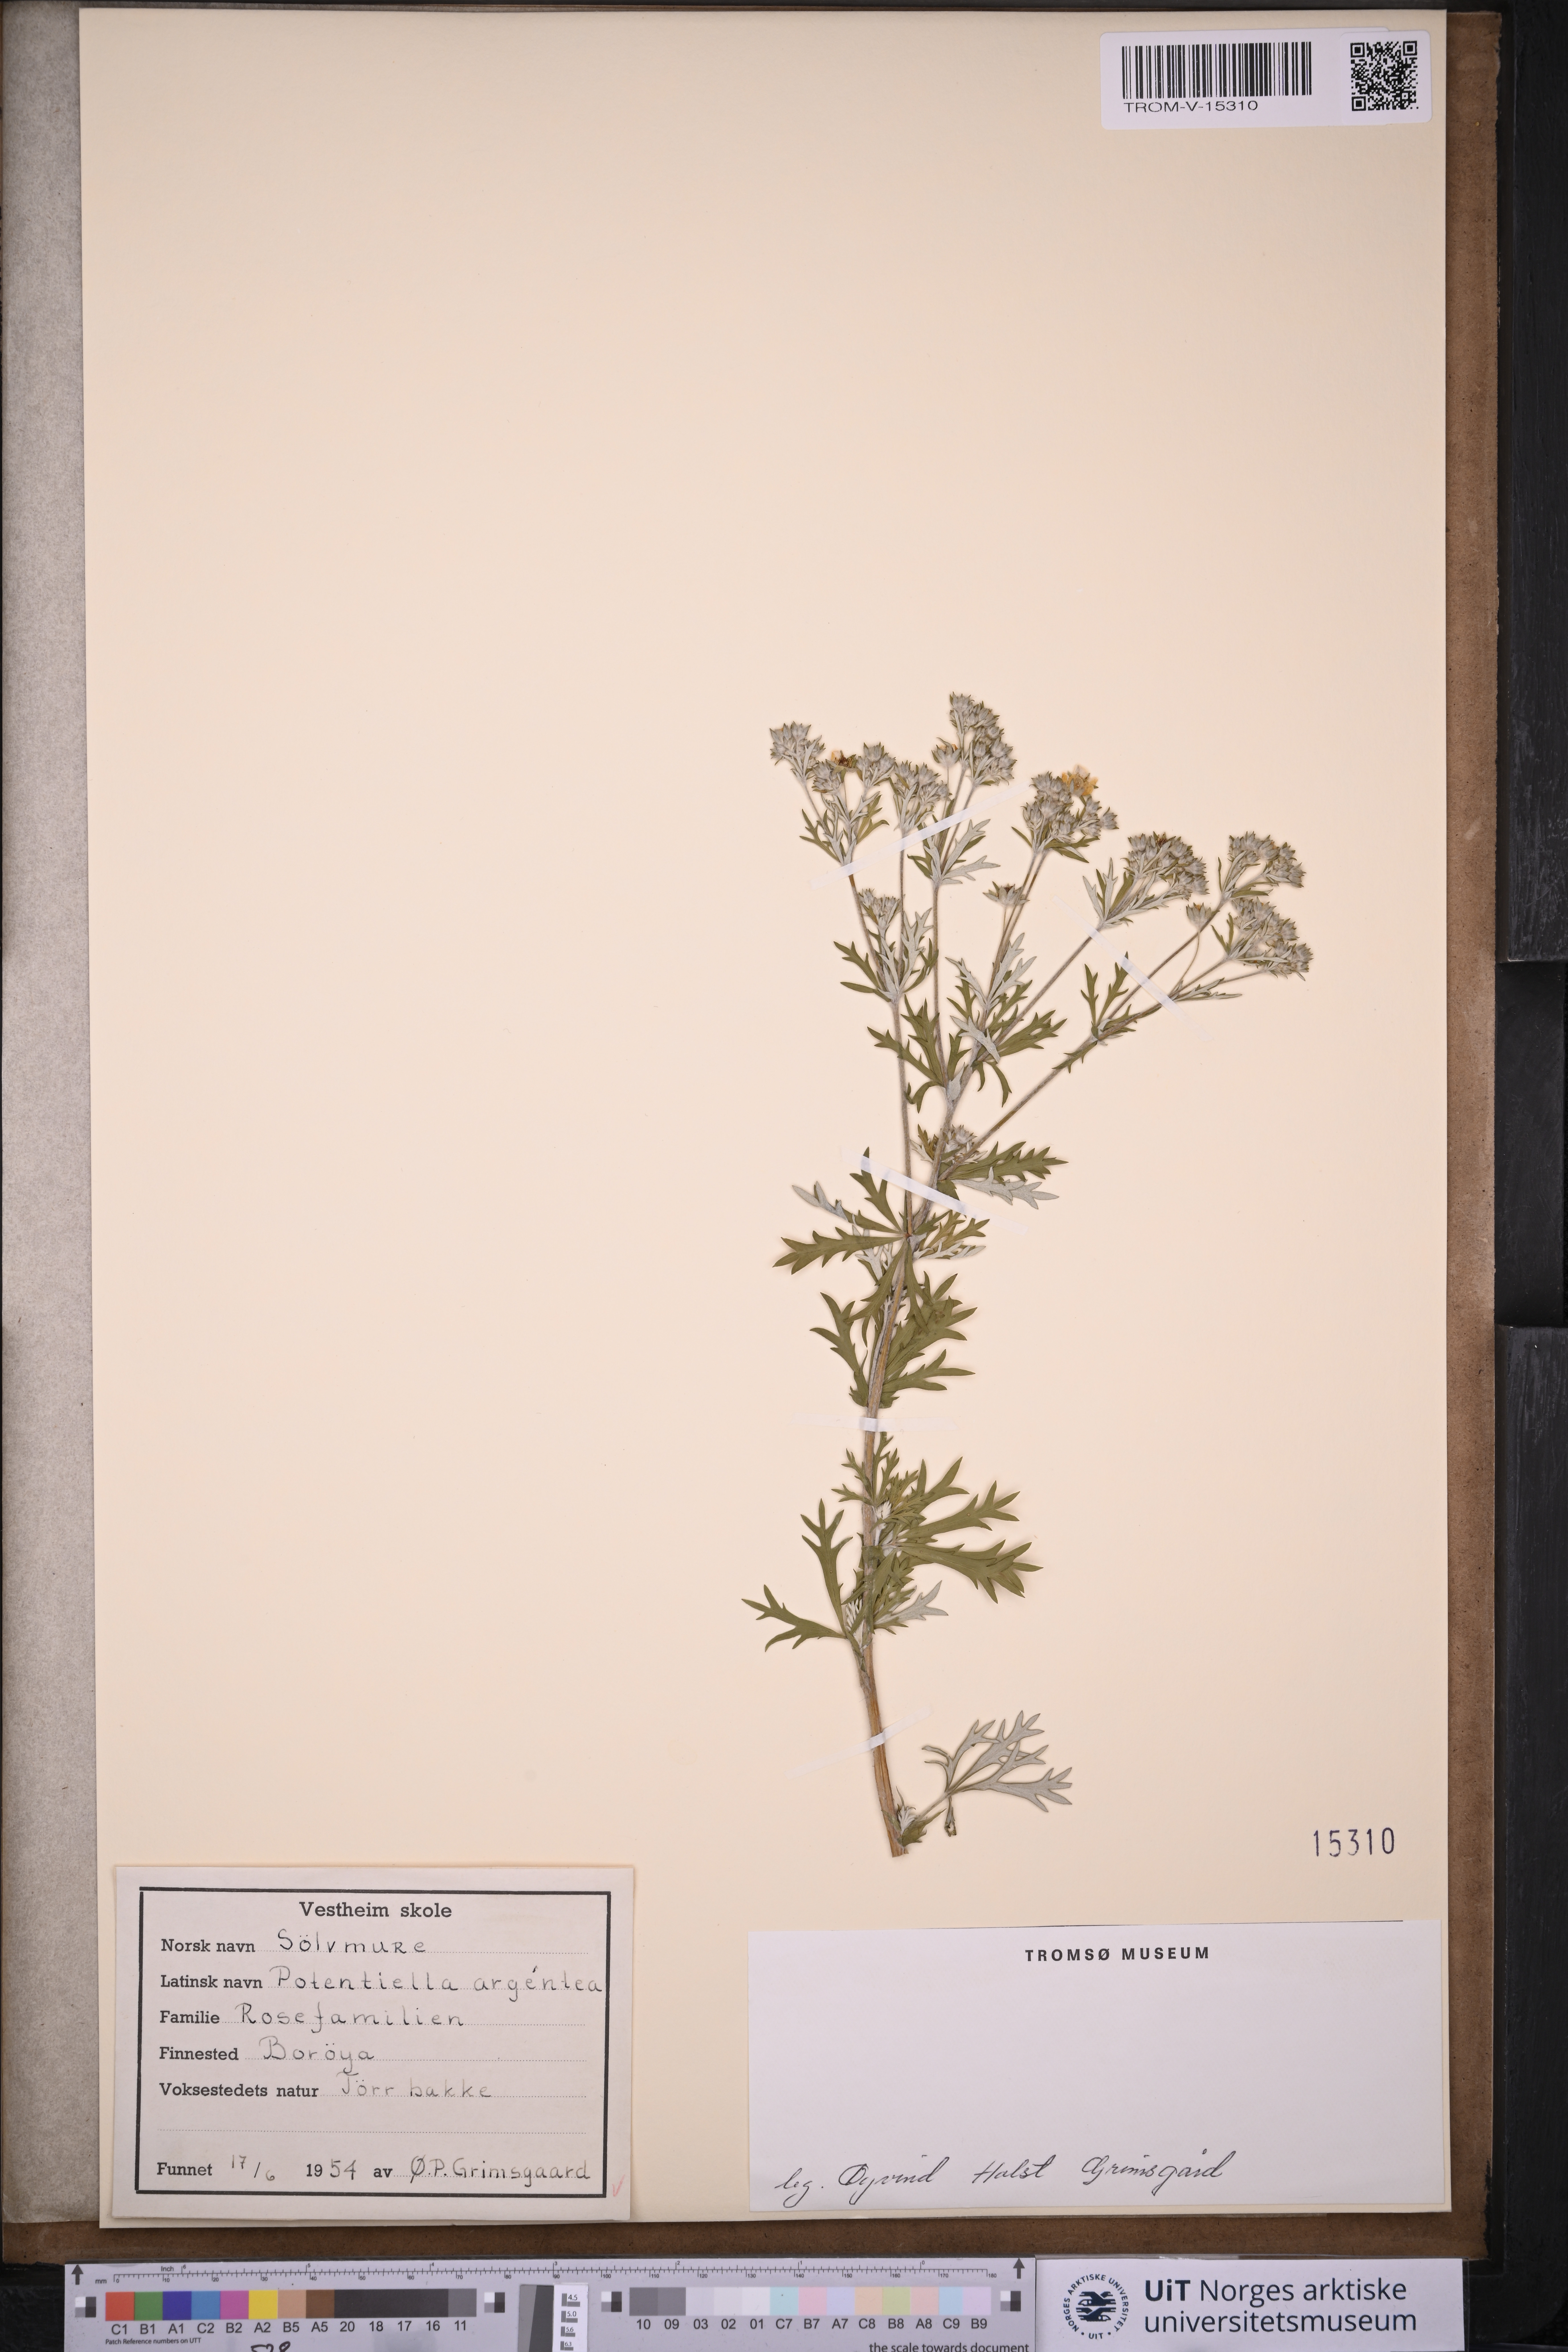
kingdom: Plantae
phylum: Tracheophyta
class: Magnoliopsida
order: Rosales
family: Rosaceae
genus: Potentilla
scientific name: Potentilla argentea
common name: Hoary cinquefoil
